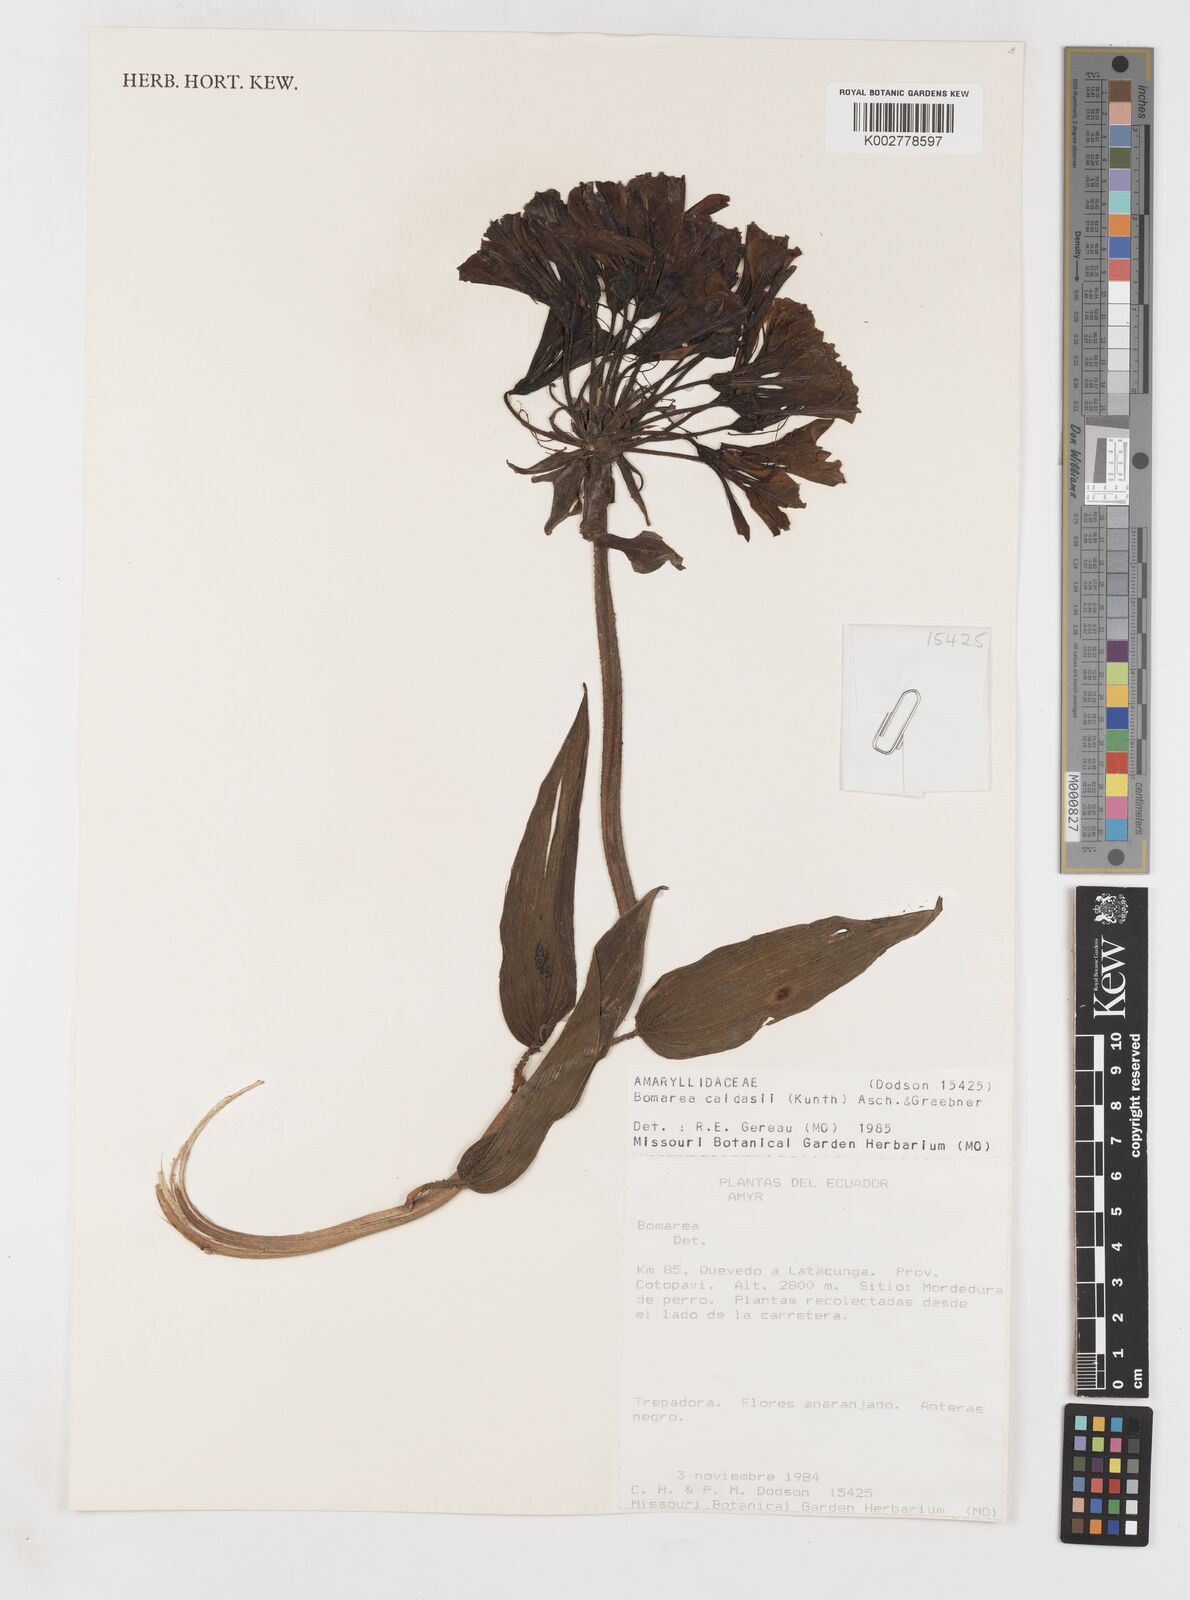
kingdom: Plantae
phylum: Tracheophyta
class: Liliopsida
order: Liliales
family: Alstroemeriaceae
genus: Bomarea
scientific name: Bomarea multiflora
